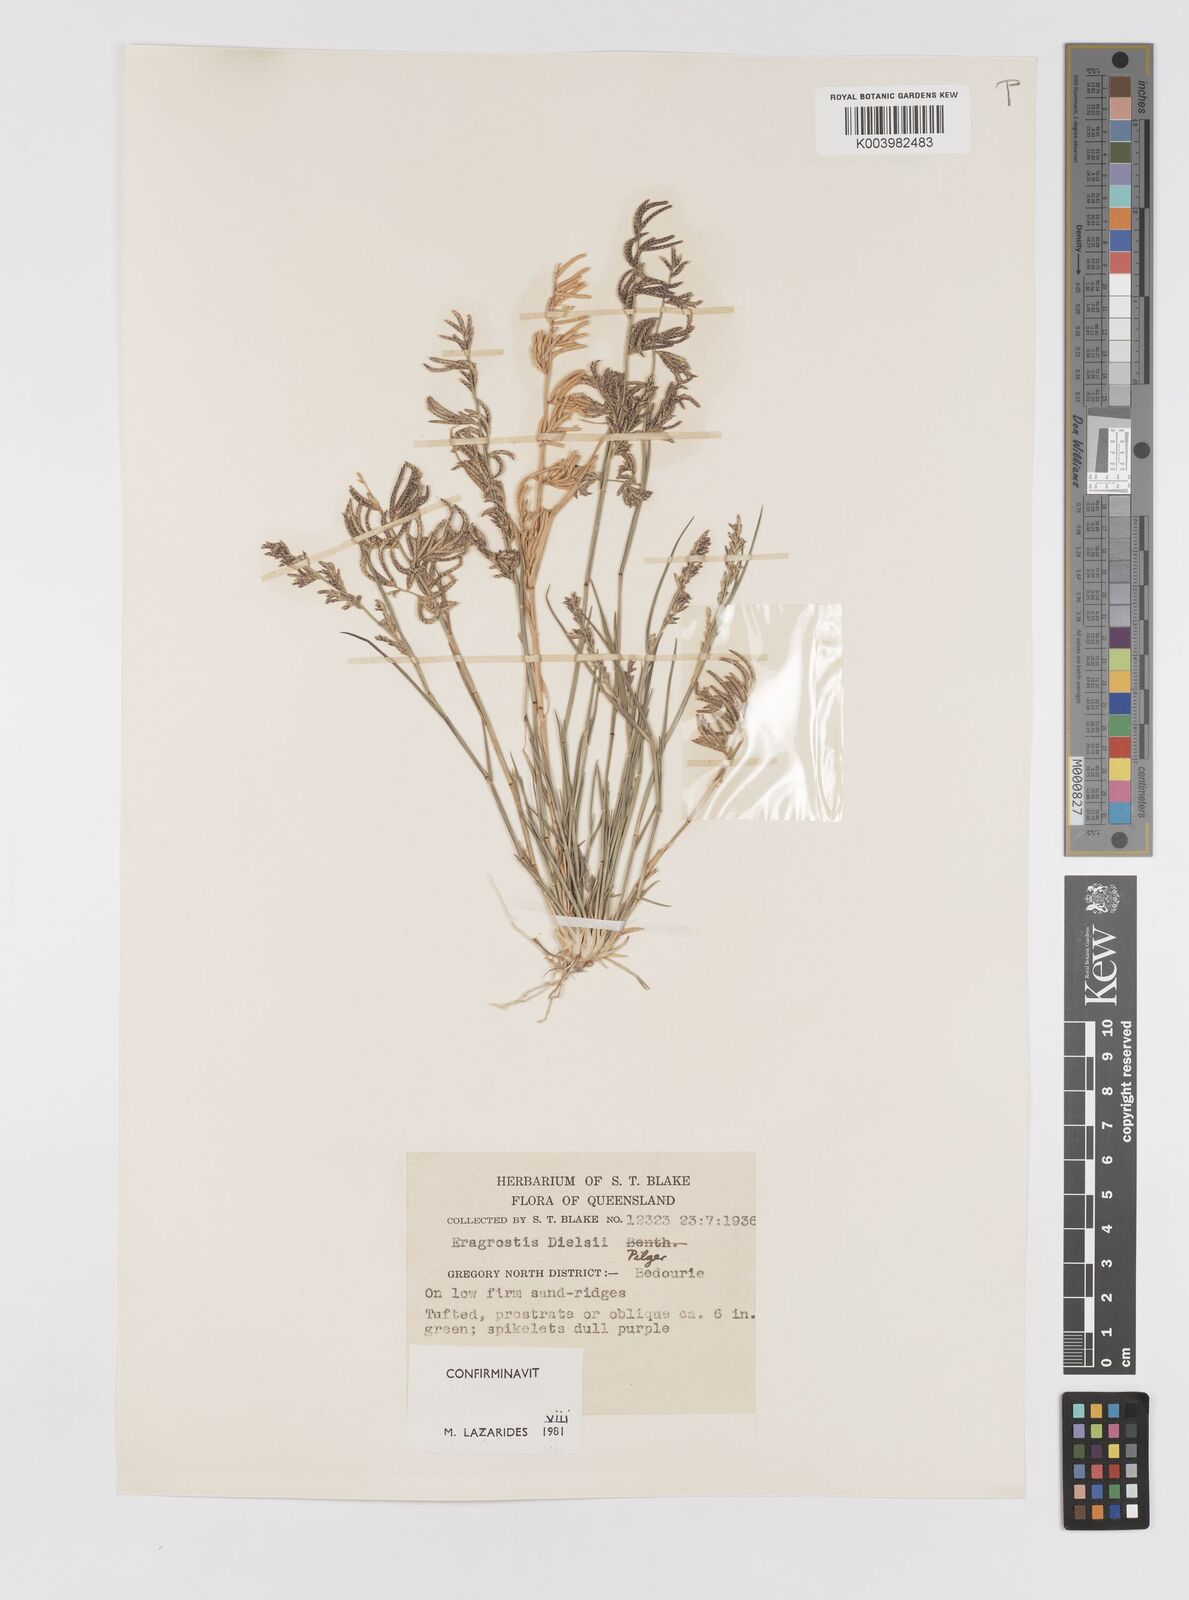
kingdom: Plantae
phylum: Tracheophyta
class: Liliopsida
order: Poales
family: Poaceae
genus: Eragrostis
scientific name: Eragrostis dielsii
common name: Lovegrass
